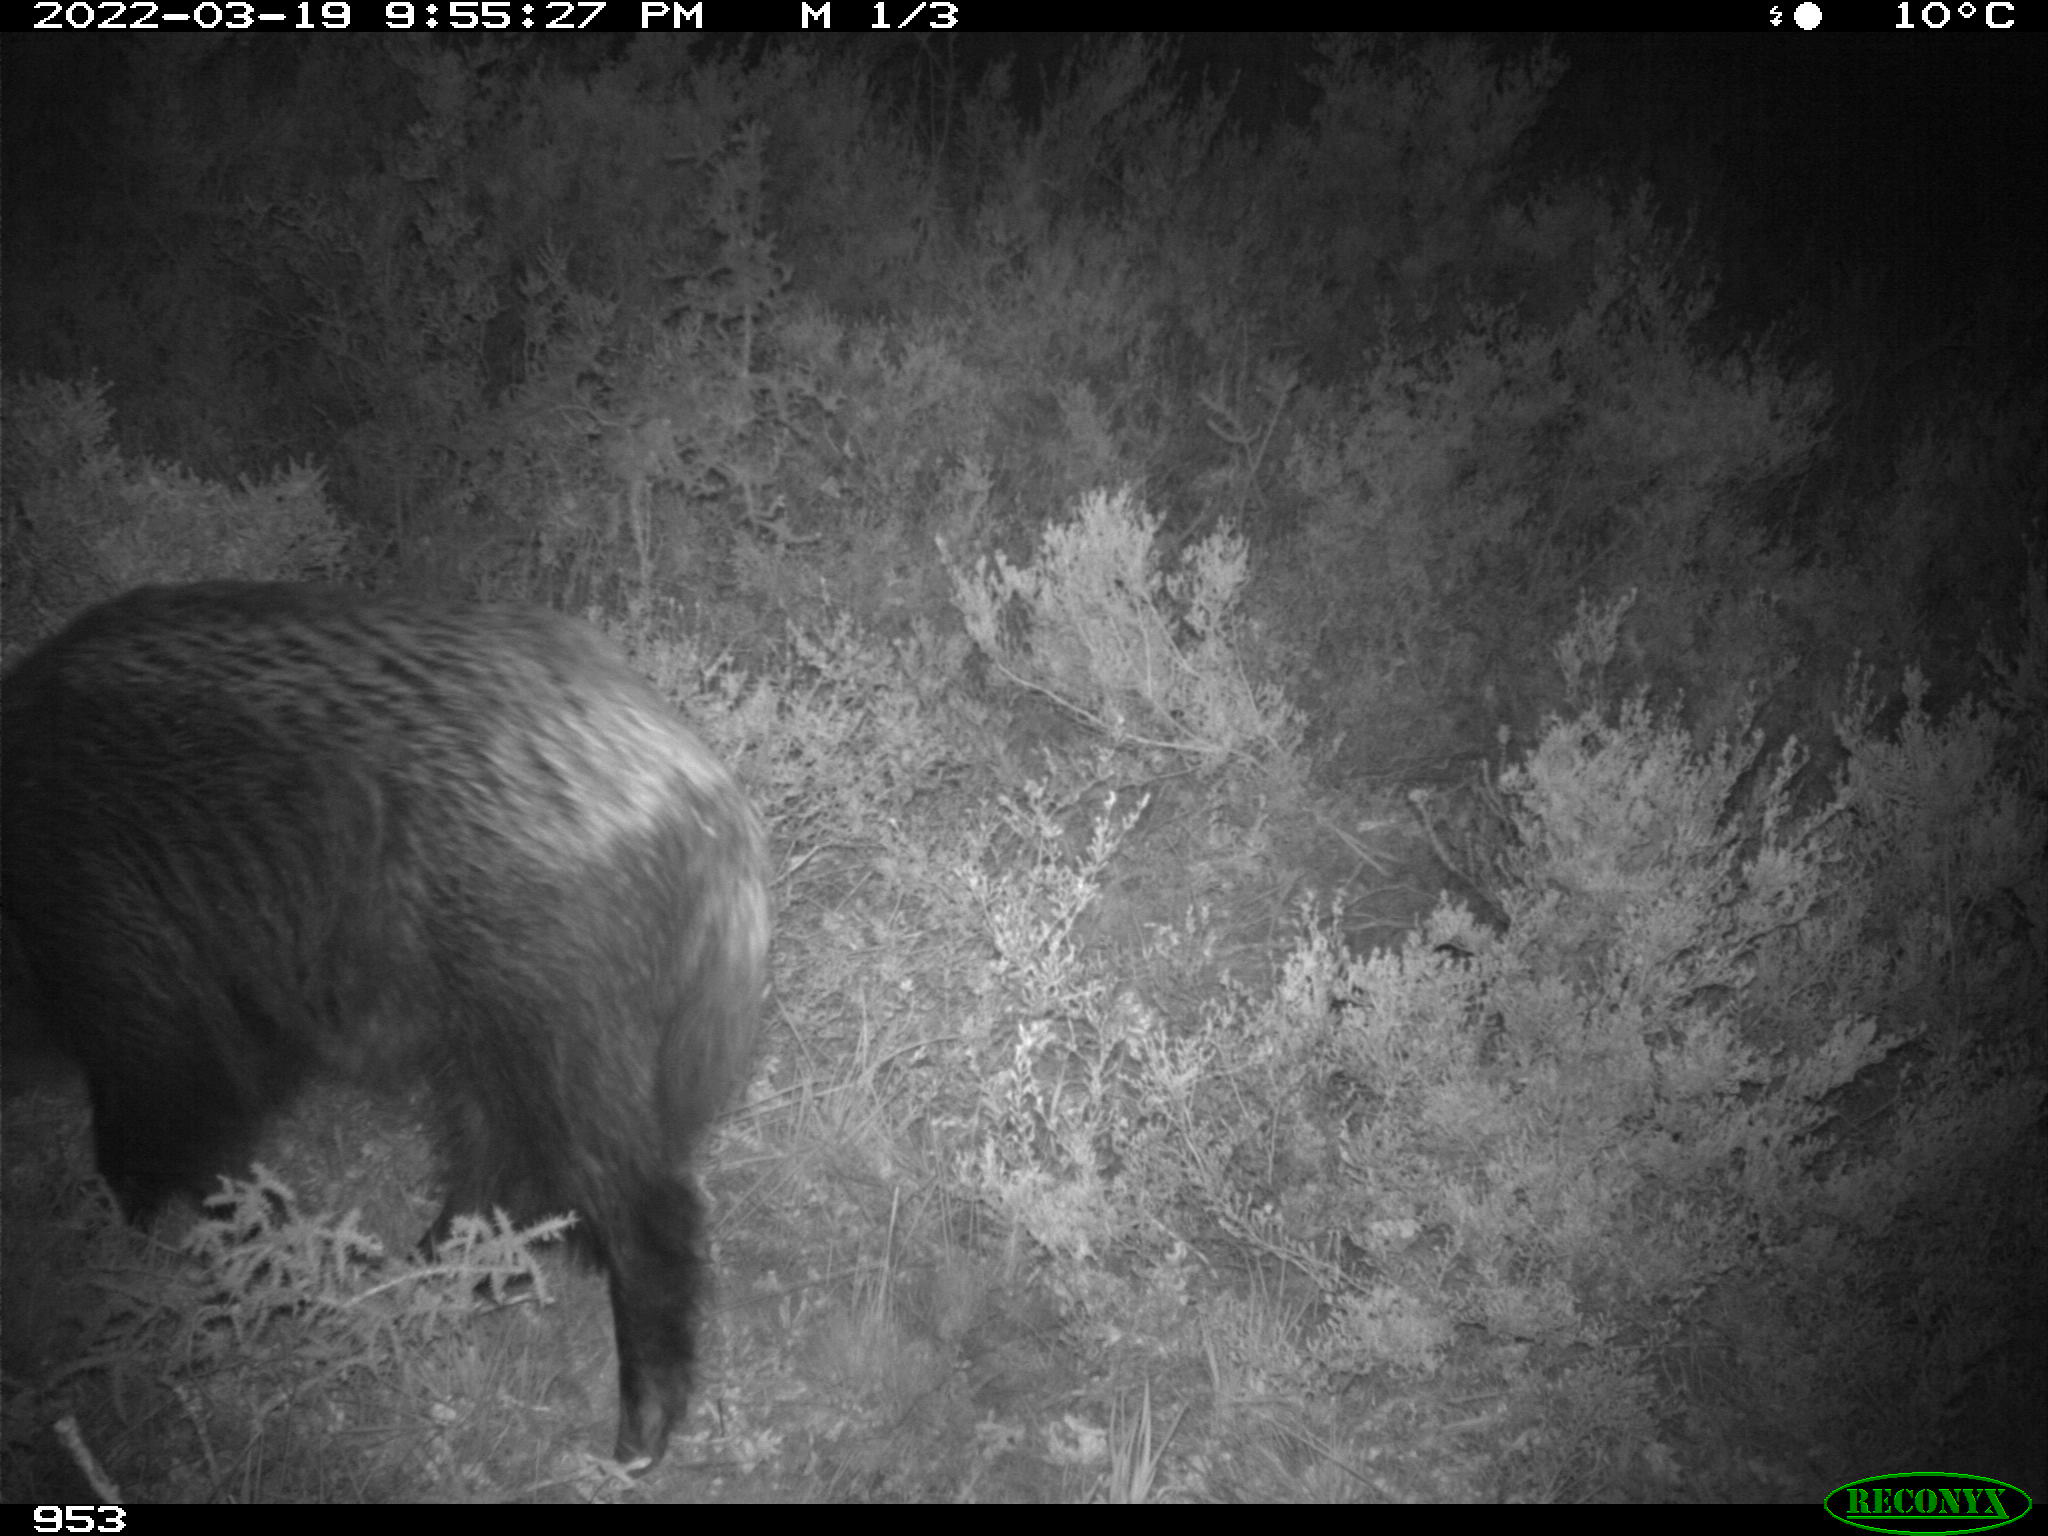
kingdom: Animalia
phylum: Chordata
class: Mammalia
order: Artiodactyla
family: Suidae
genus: Sus
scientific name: Sus scrofa
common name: Wild boar
